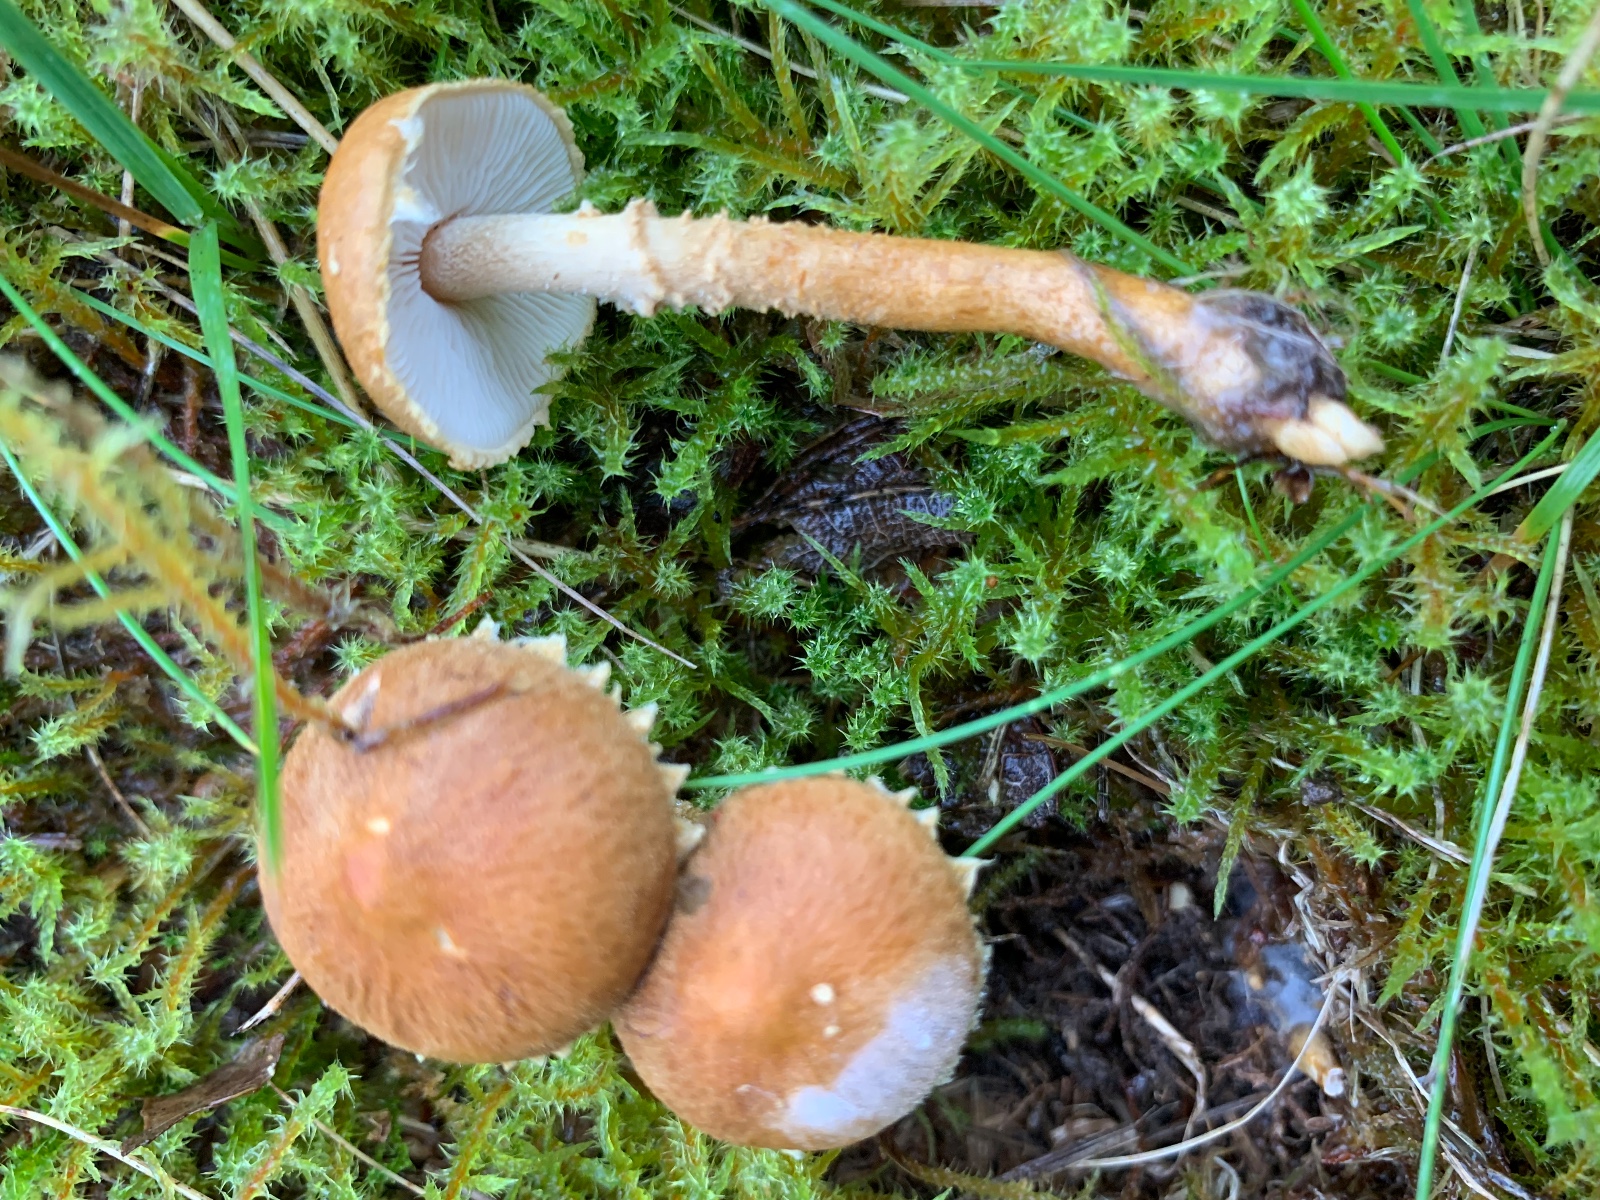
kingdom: Fungi
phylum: Basidiomycota
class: Agaricomycetes
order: Agaricales
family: Tricholomataceae
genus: Cystoderma
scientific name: Cystoderma amianthinum
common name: okkergul grynhat
